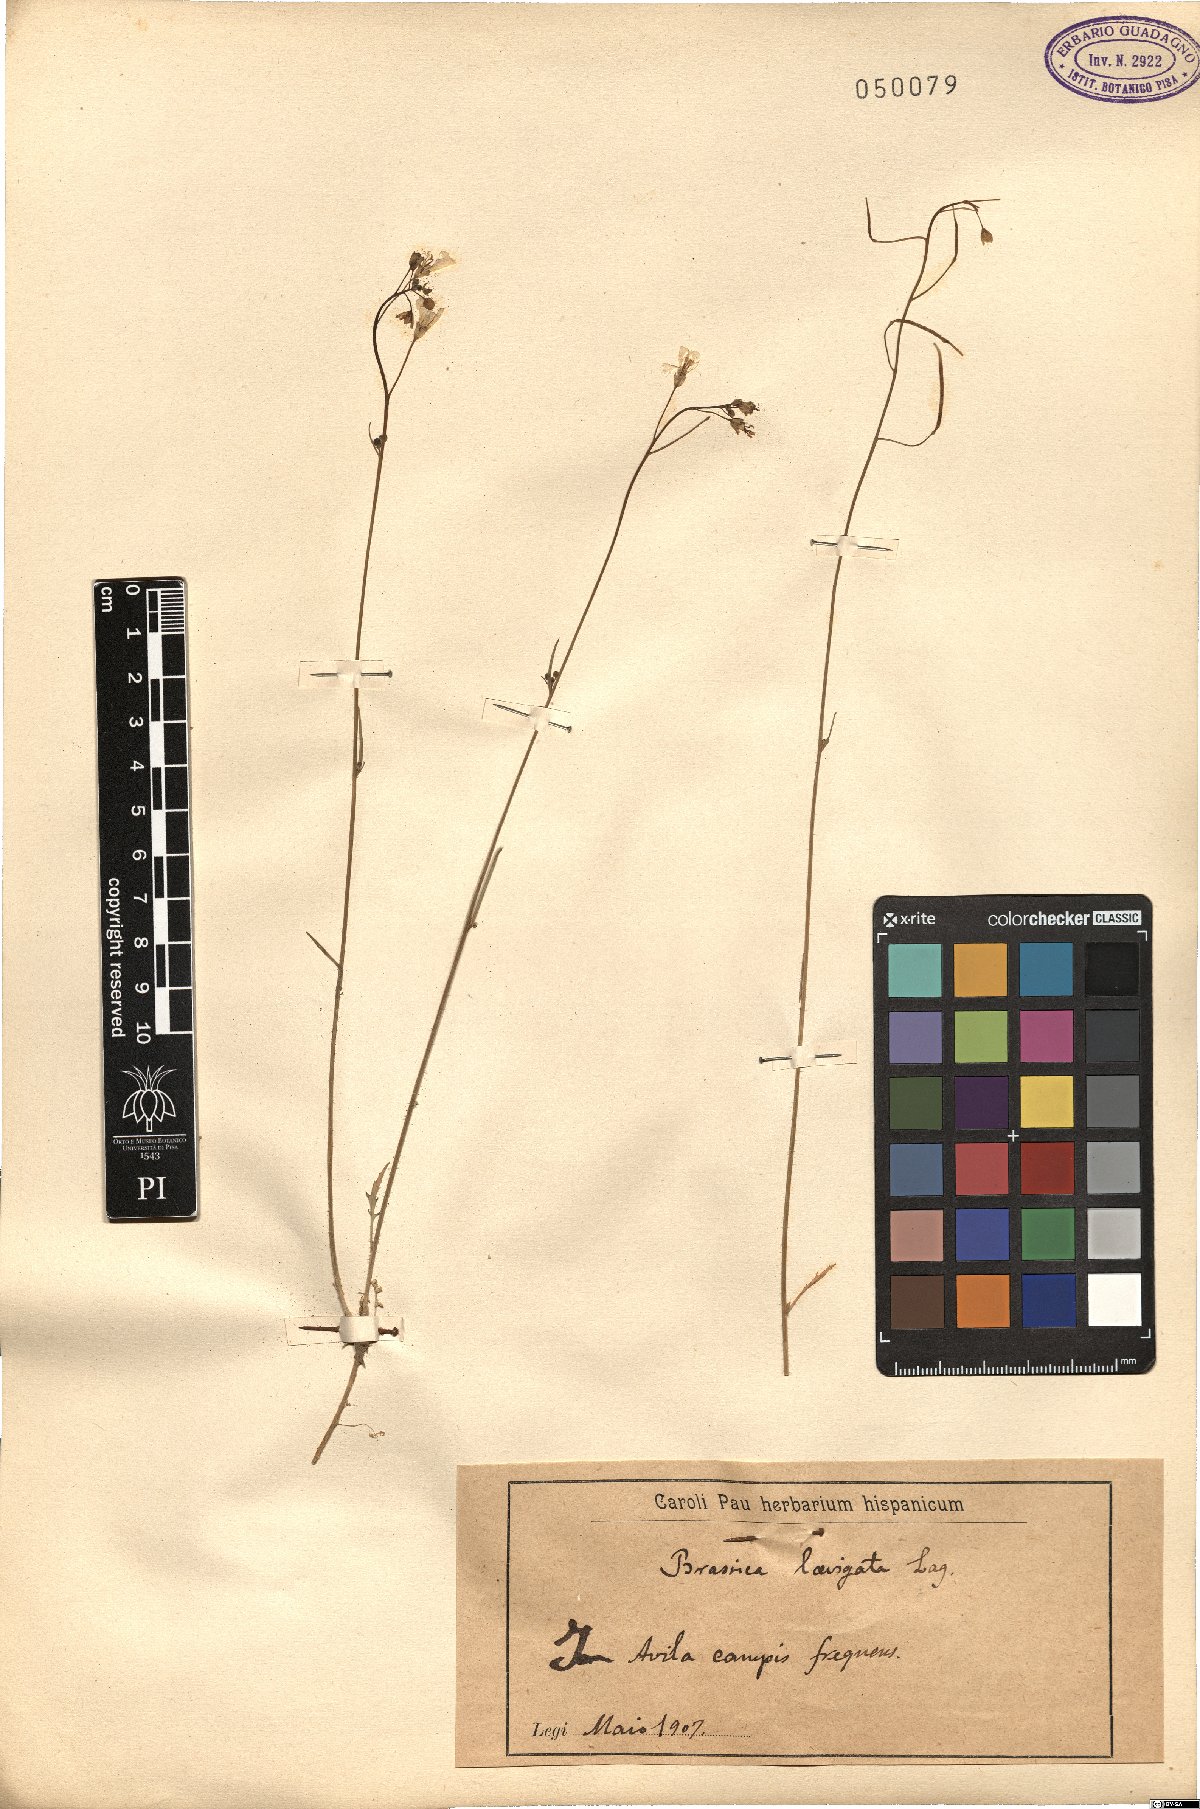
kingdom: Plantae
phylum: Tracheophyta
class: Magnoliopsida
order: Brassicales
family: Brassicaceae
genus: Brassica
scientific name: Brassica barrelieri
